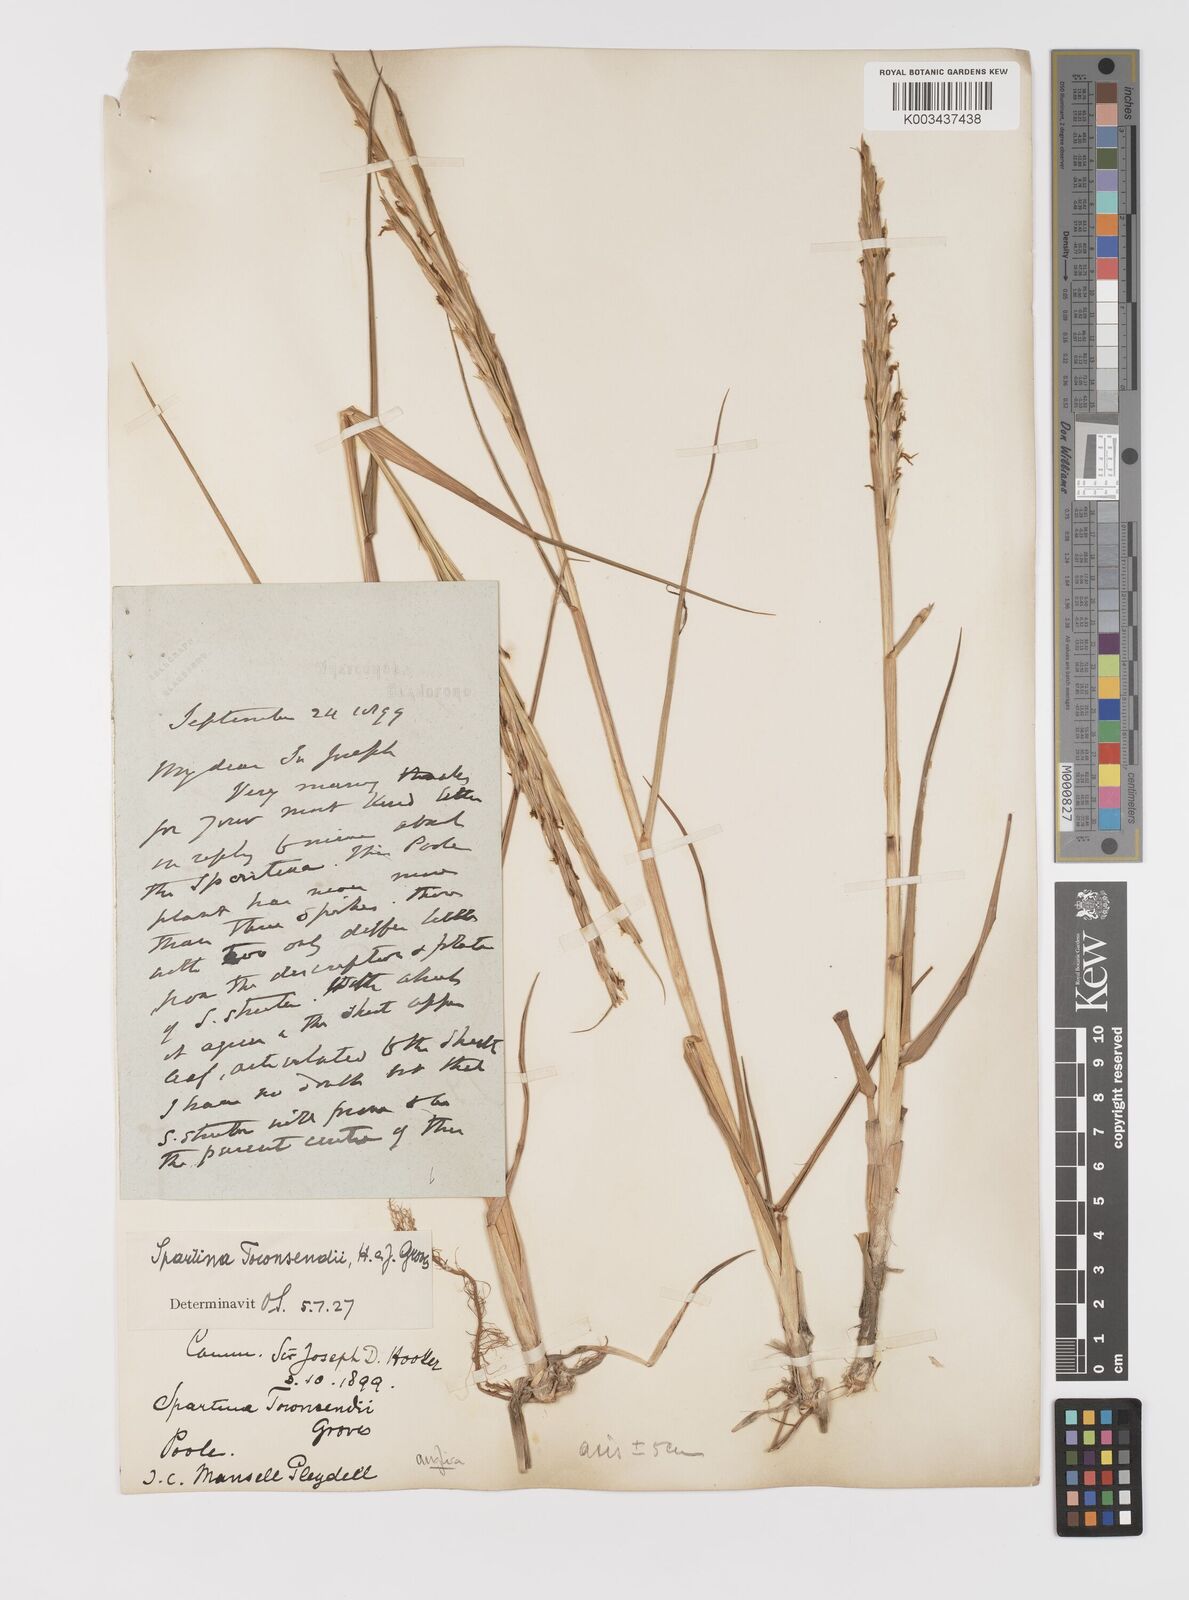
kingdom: Plantae
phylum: Tracheophyta
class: Liliopsida
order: Poales
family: Poaceae
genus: Sporobolus
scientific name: Sporobolus anglicus
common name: English cordgrass
